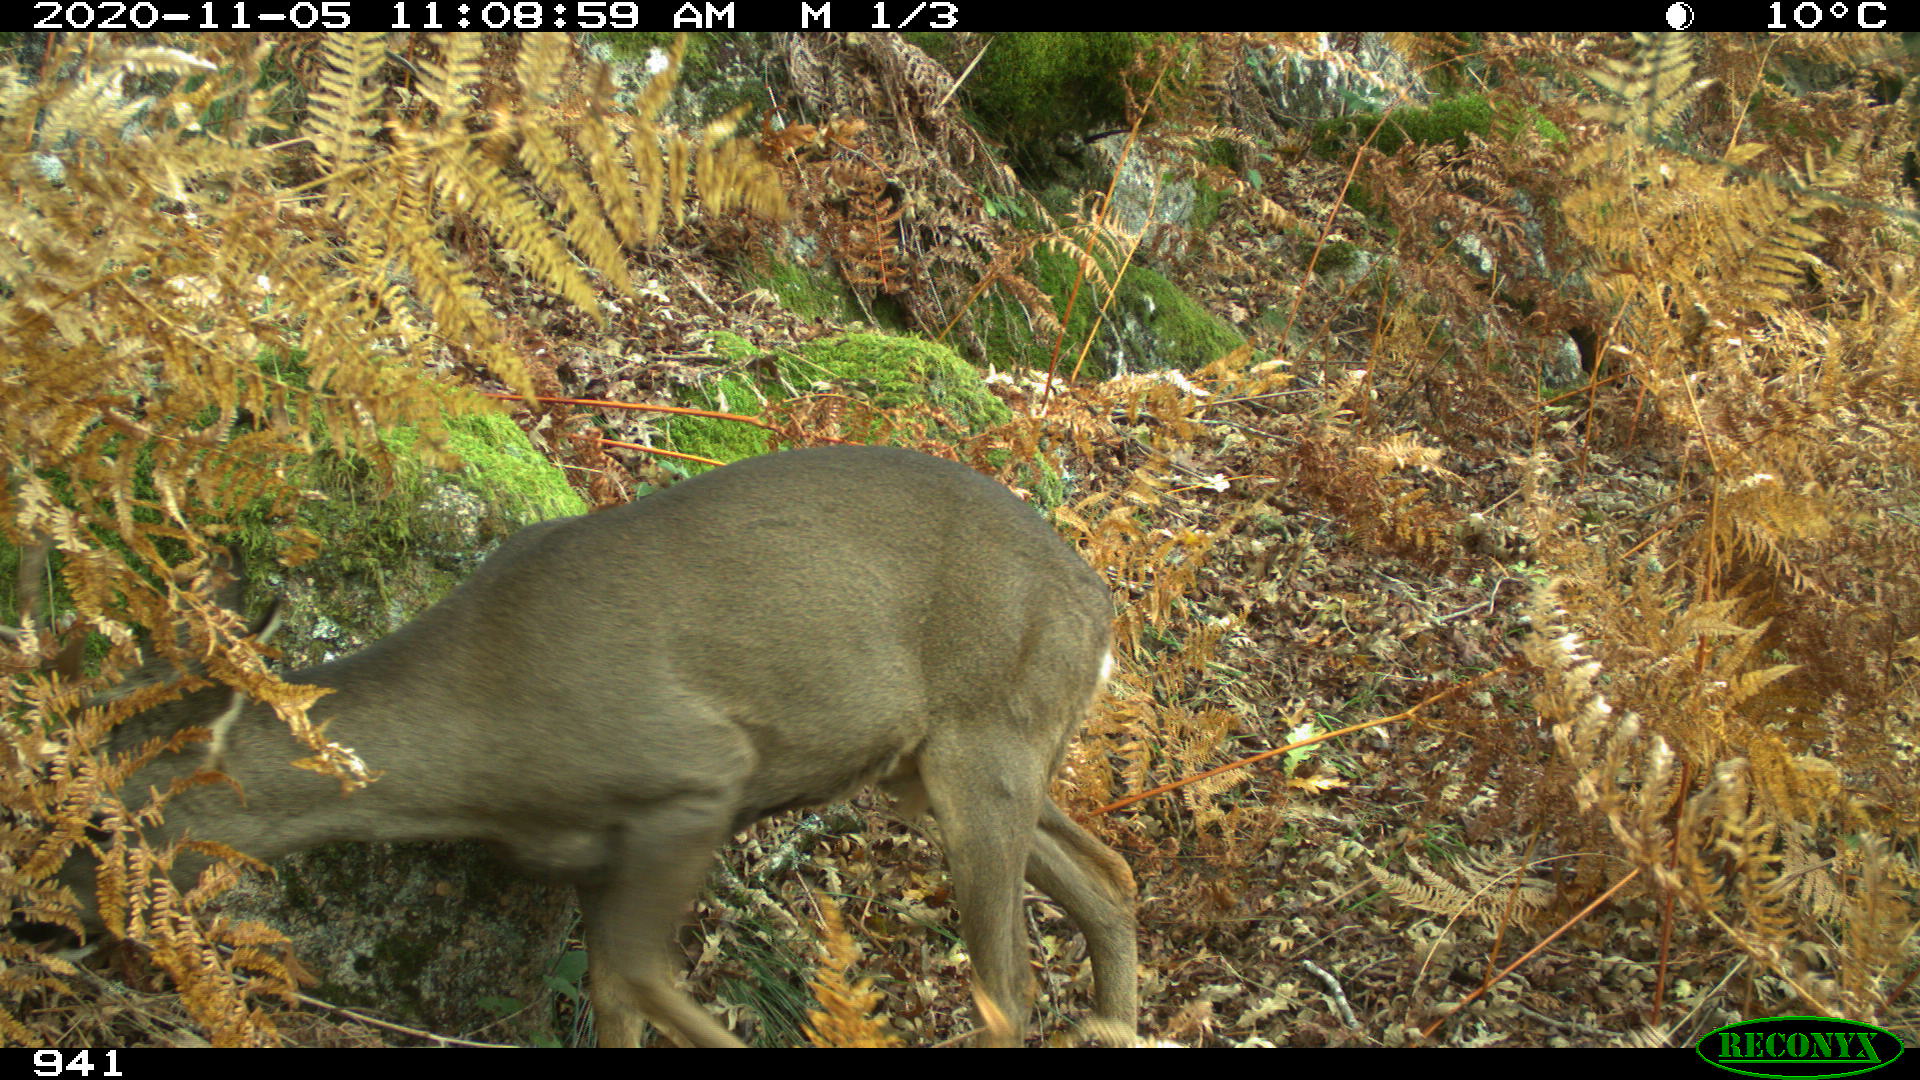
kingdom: Animalia
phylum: Chordata
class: Mammalia
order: Artiodactyla
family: Cervidae
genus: Capreolus
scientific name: Capreolus capreolus
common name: Western roe deer
